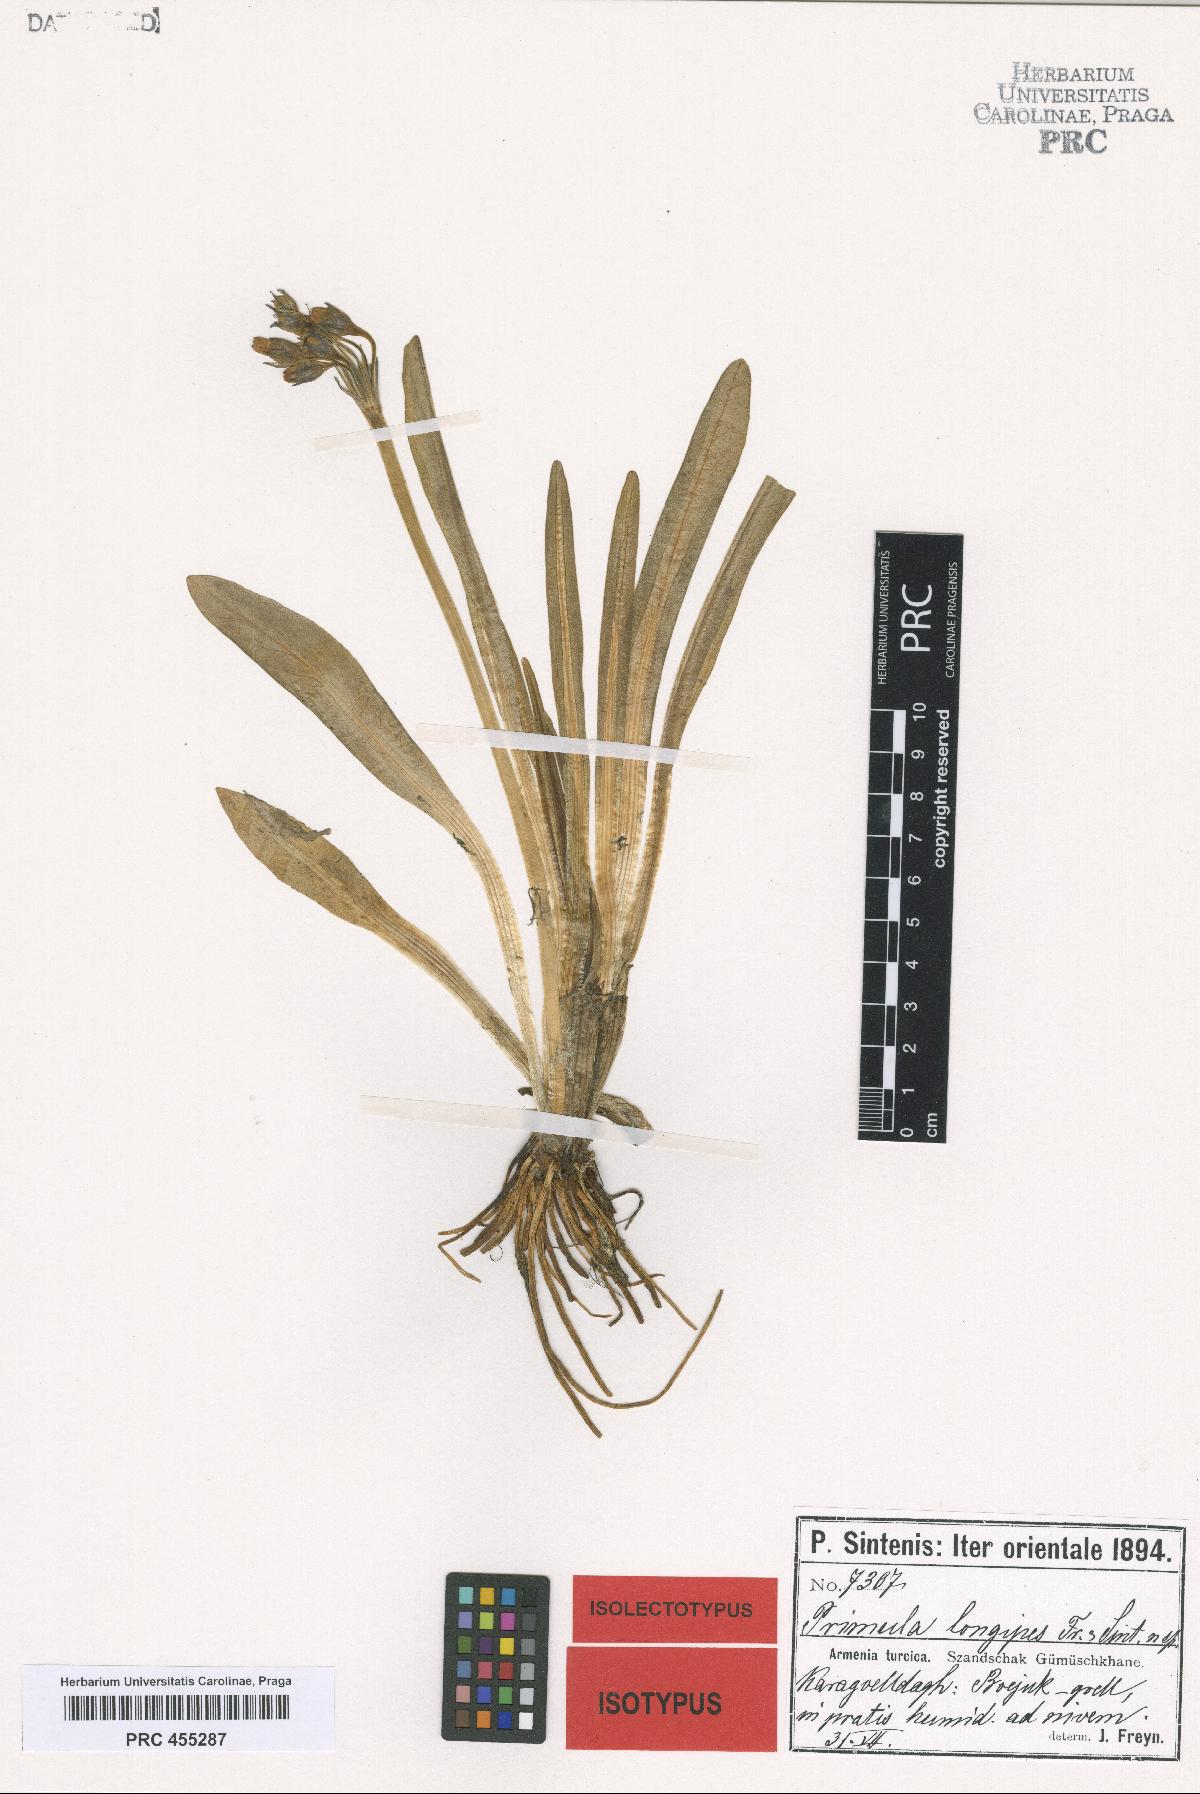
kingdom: Plantae
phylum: Tracheophyta
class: Magnoliopsida
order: Ericales
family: Primulaceae
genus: Primula
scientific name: Primula longipes
